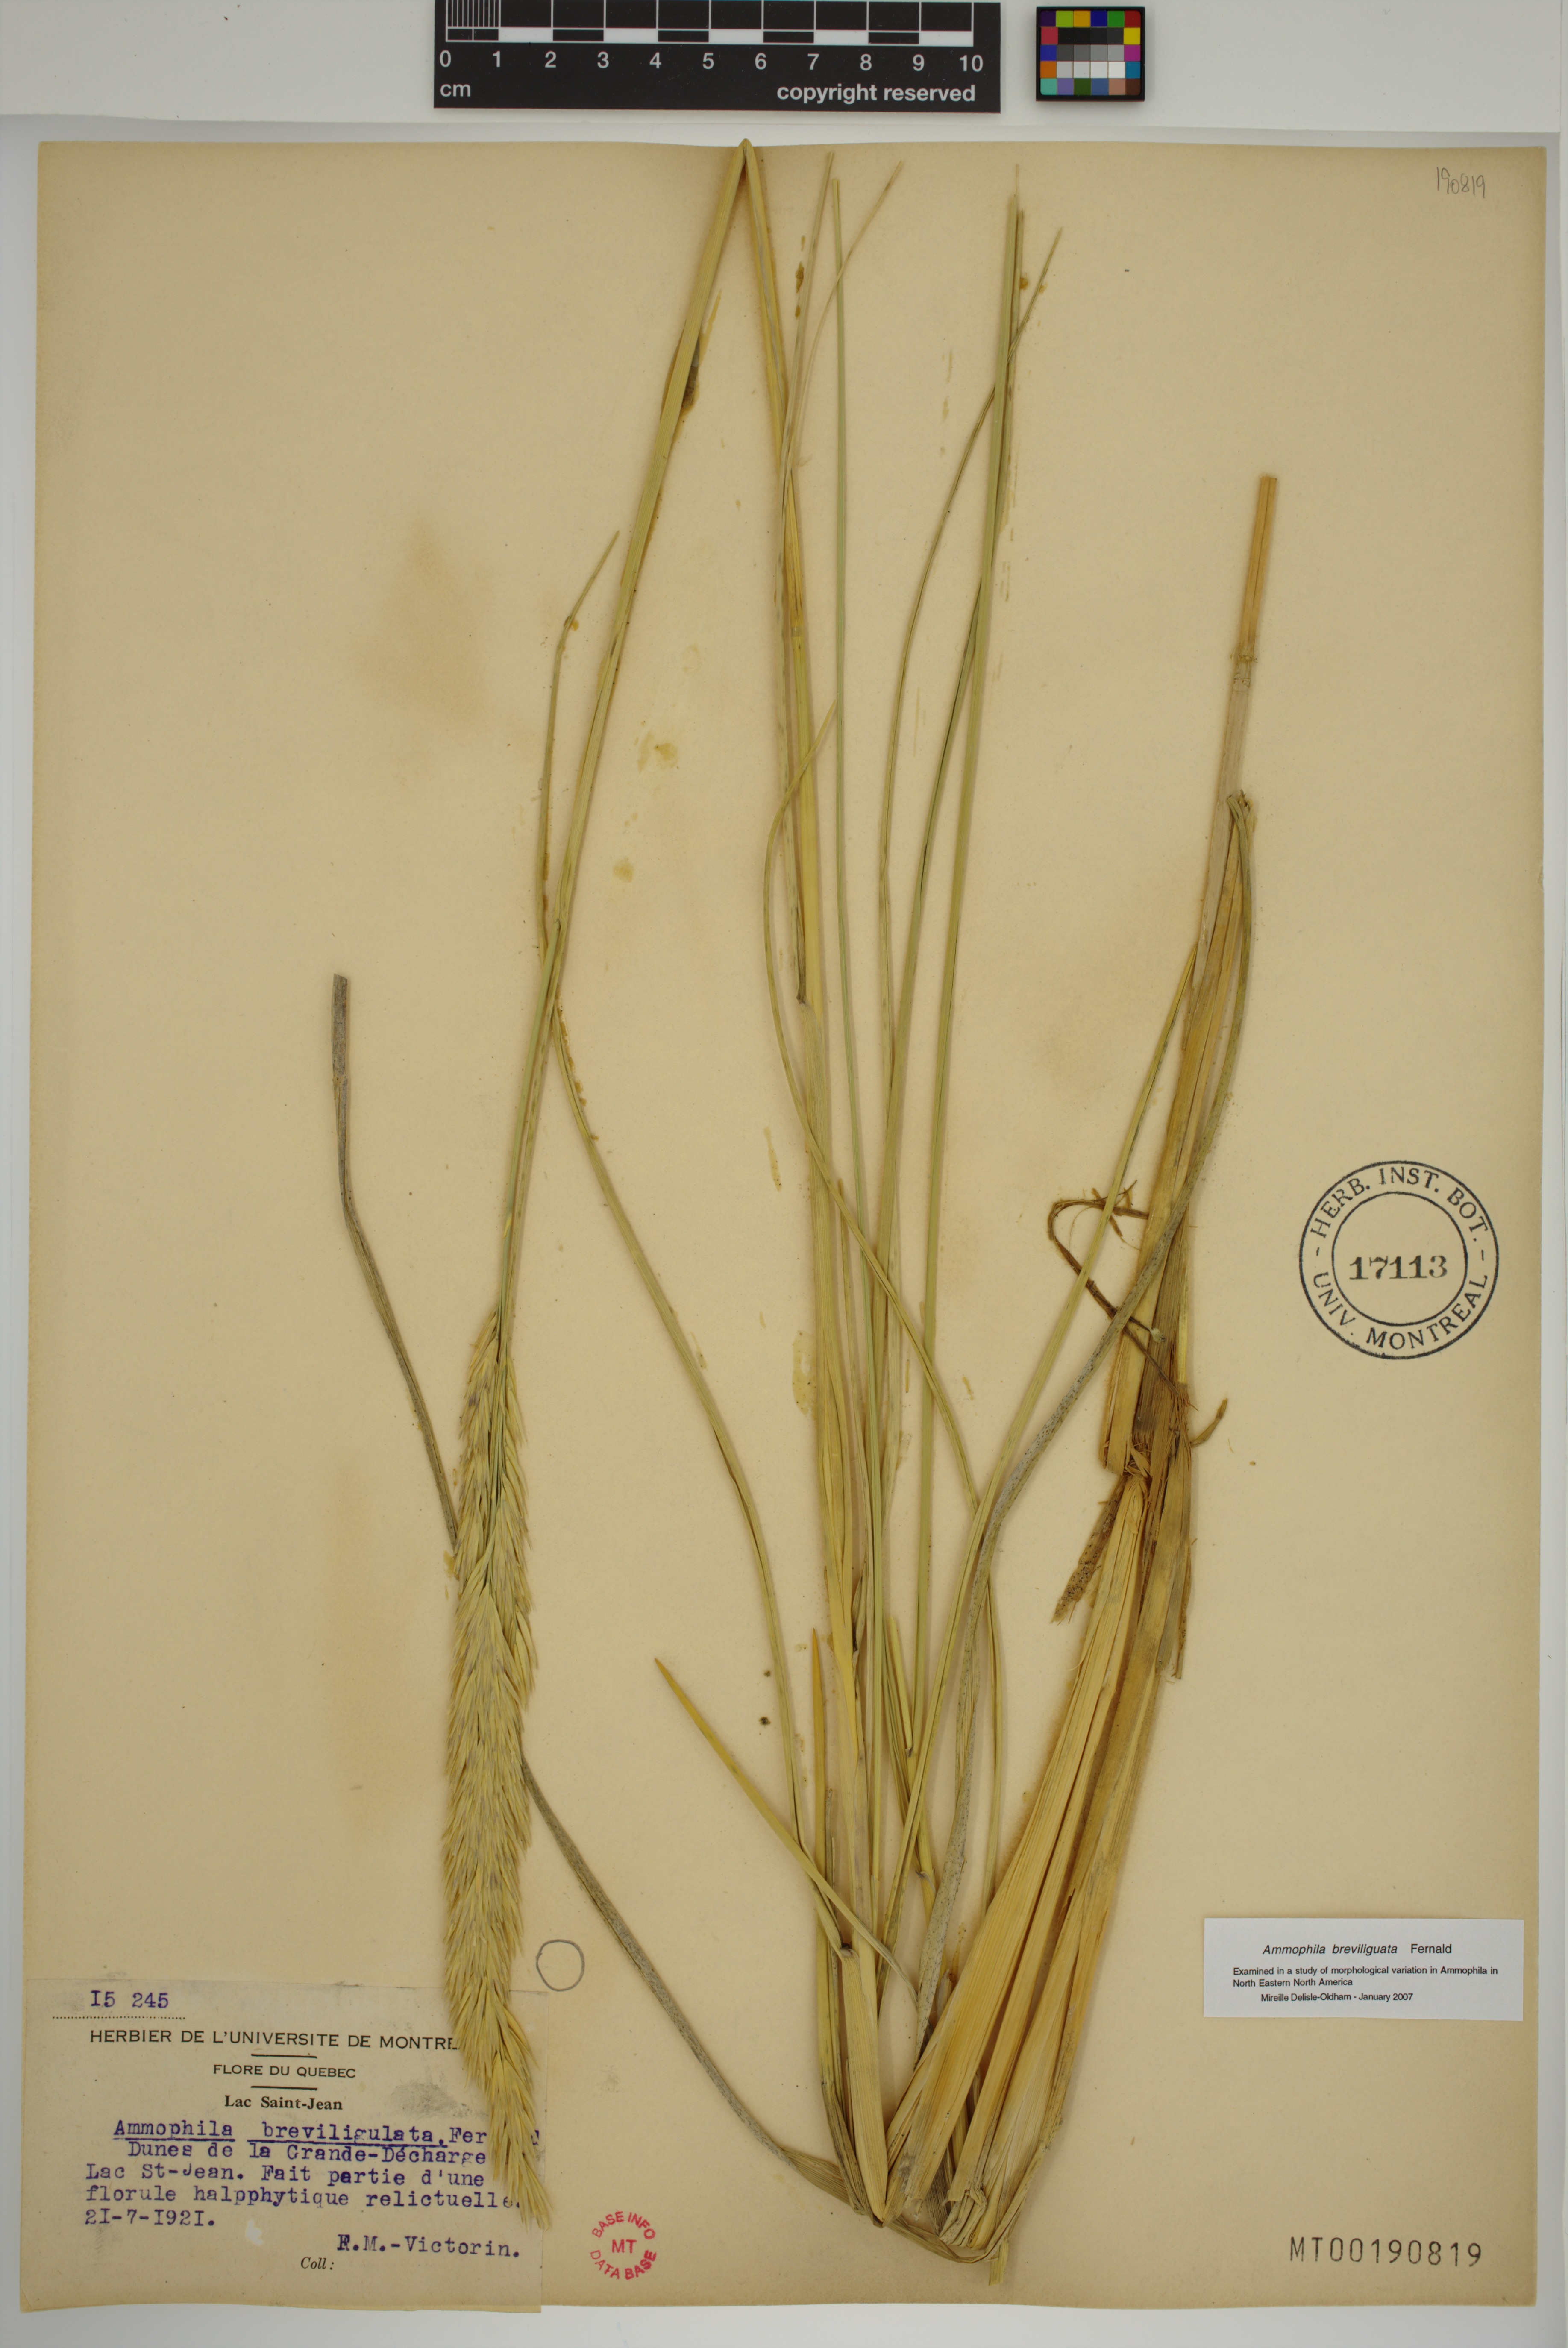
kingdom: Plantae
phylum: Tracheophyta
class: Liliopsida
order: Poales
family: Poaceae
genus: Calamagrostis
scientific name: Calamagrostis breviligulata
